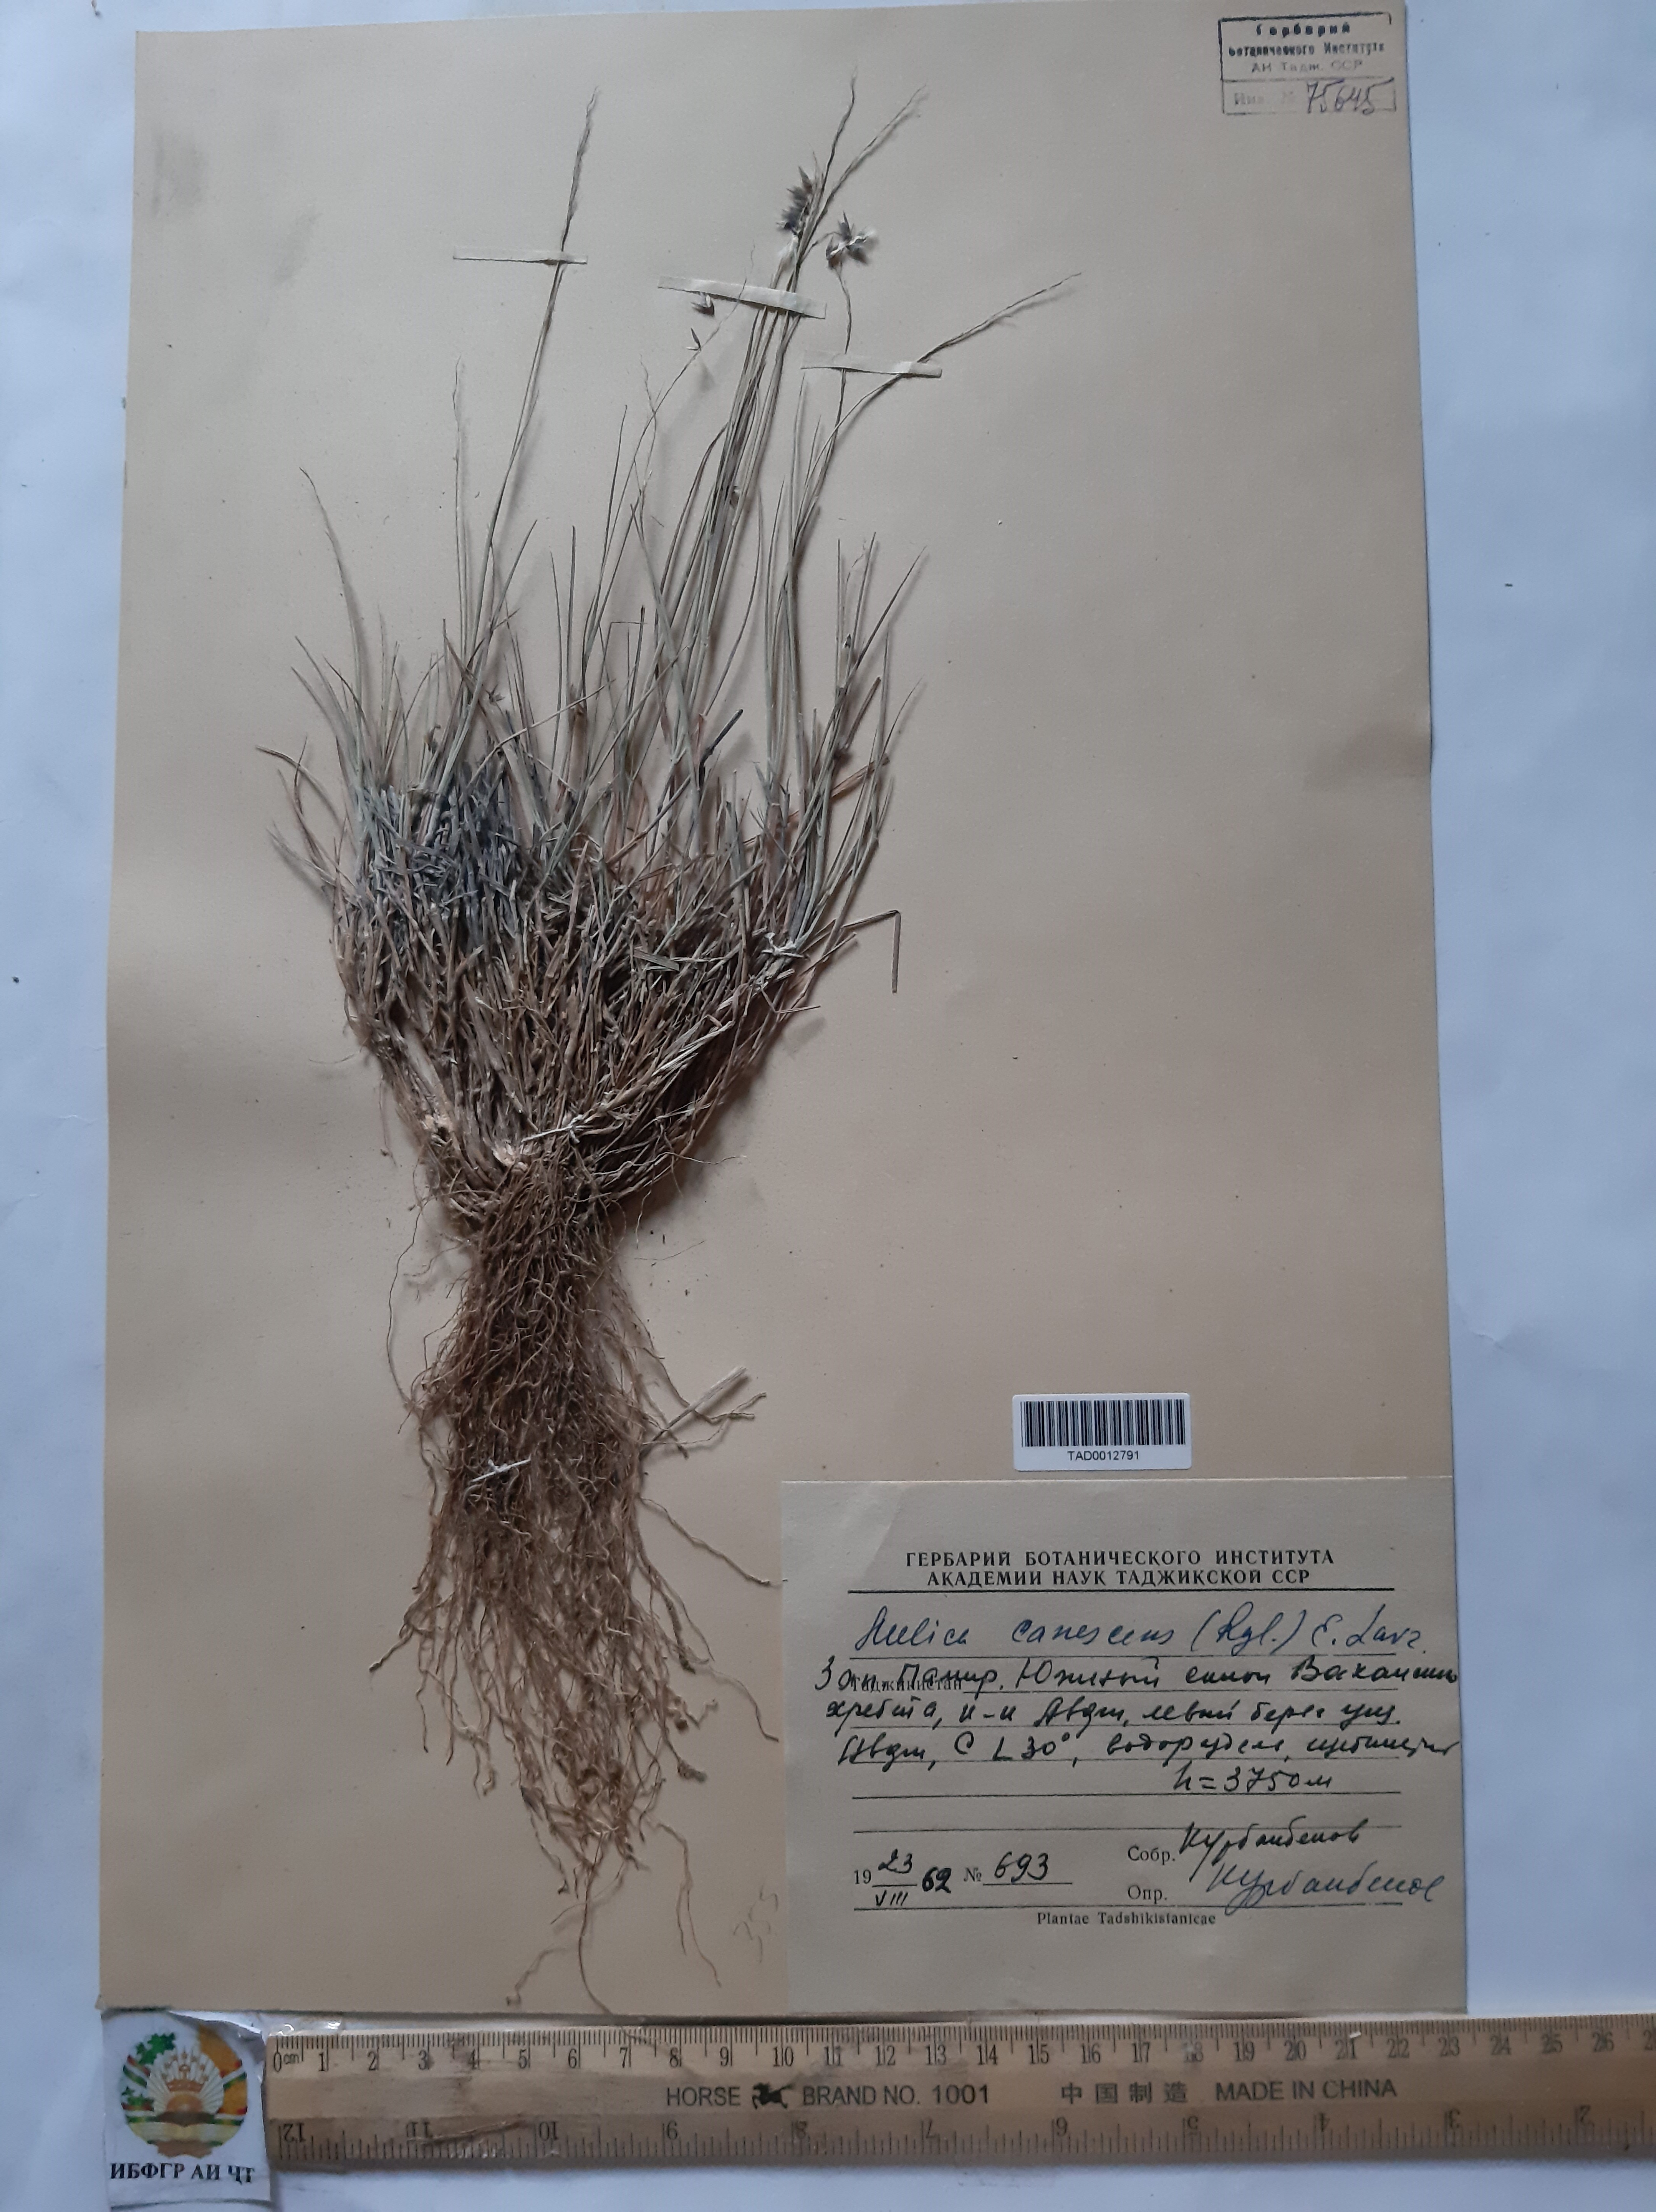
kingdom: Plantae
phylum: Tracheophyta
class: Liliopsida
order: Poales
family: Poaceae
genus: Melica
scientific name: Melica persica
